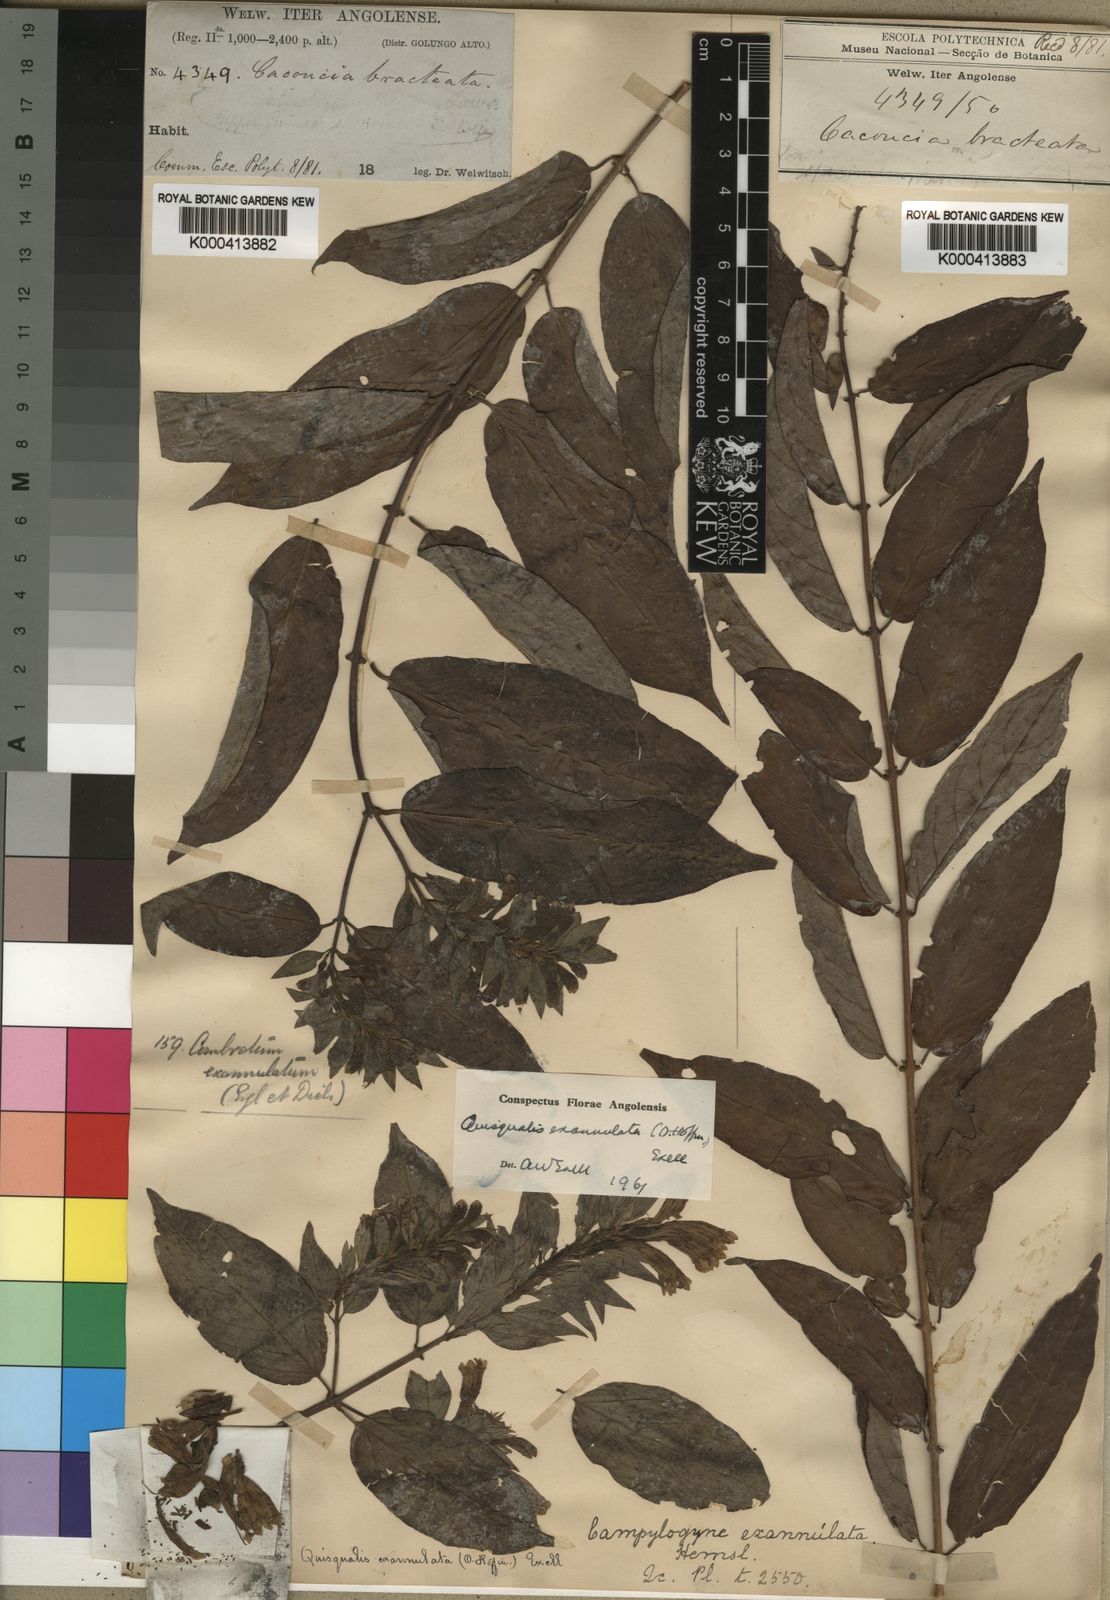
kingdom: Plantae
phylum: Tracheophyta
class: Magnoliopsida
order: Myrtales
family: Combretaceae
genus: Combretum
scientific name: Combretum exannulatum
